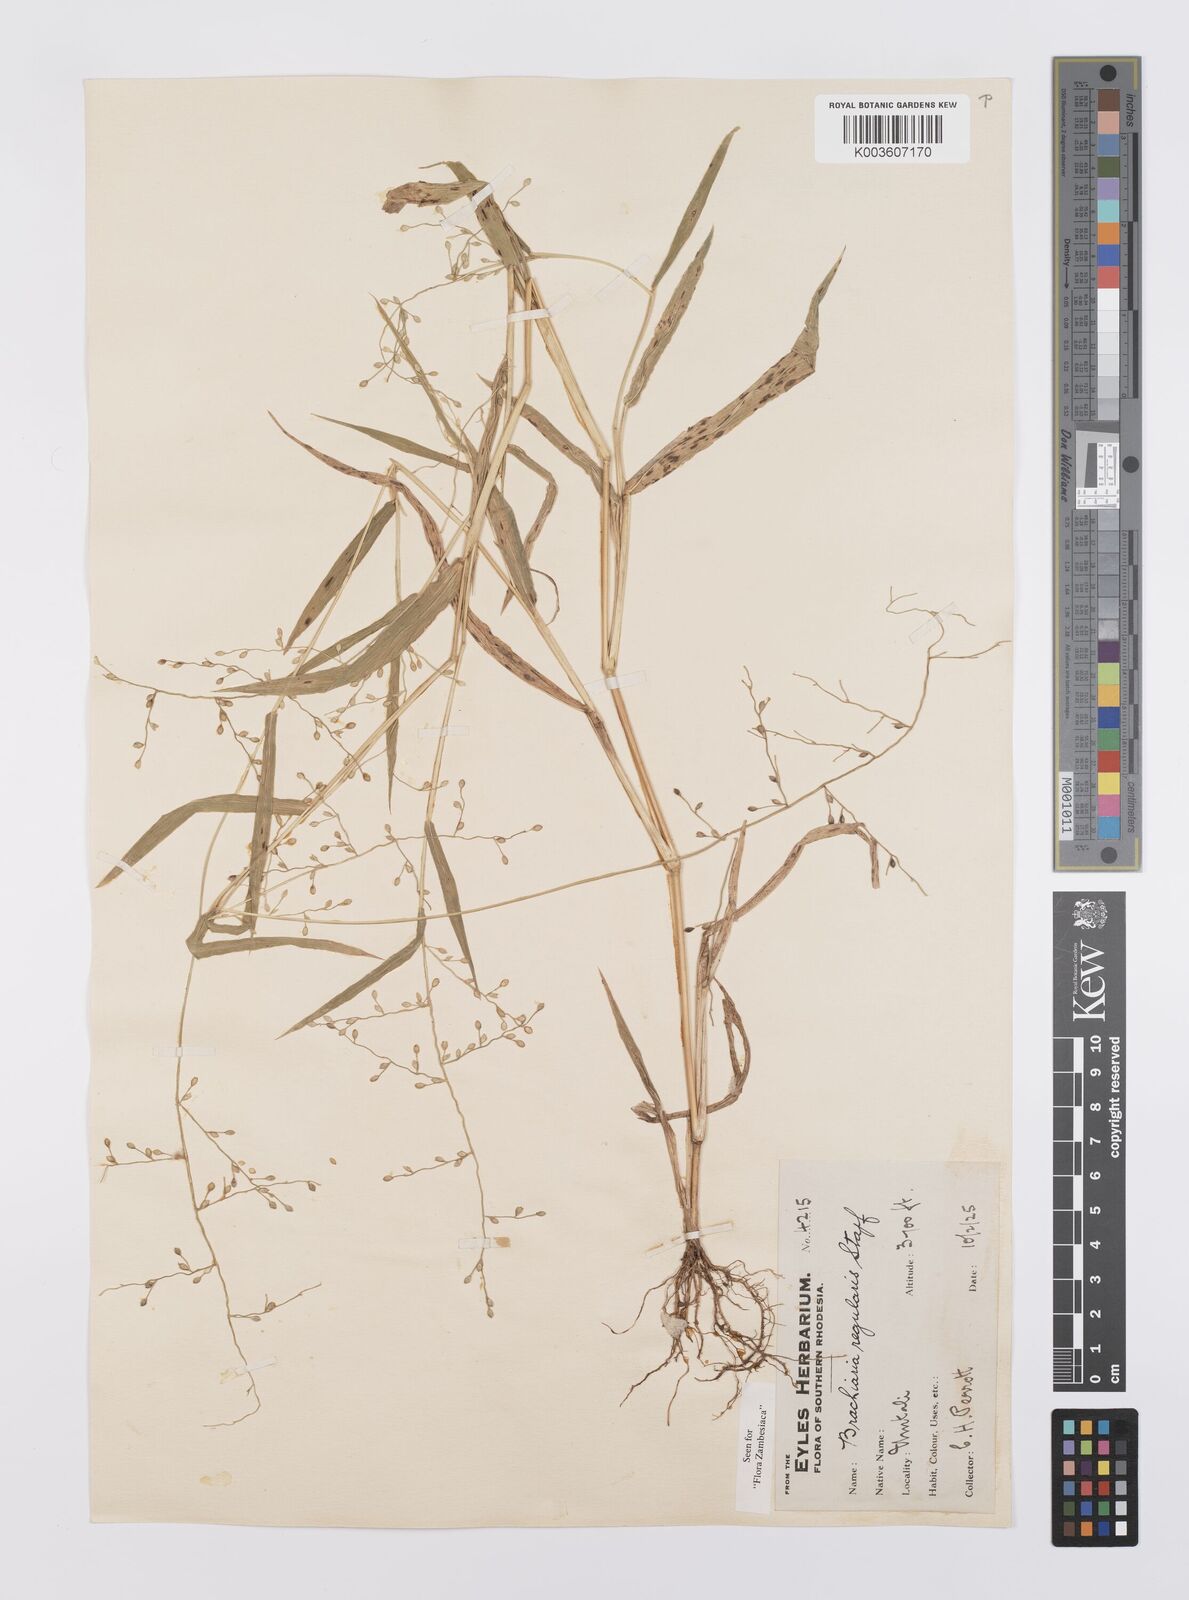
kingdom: Plantae
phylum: Tracheophyta
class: Liliopsida
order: Poales
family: Poaceae
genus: Urochloa
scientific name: Urochloa deflexa
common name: Guinea millet
